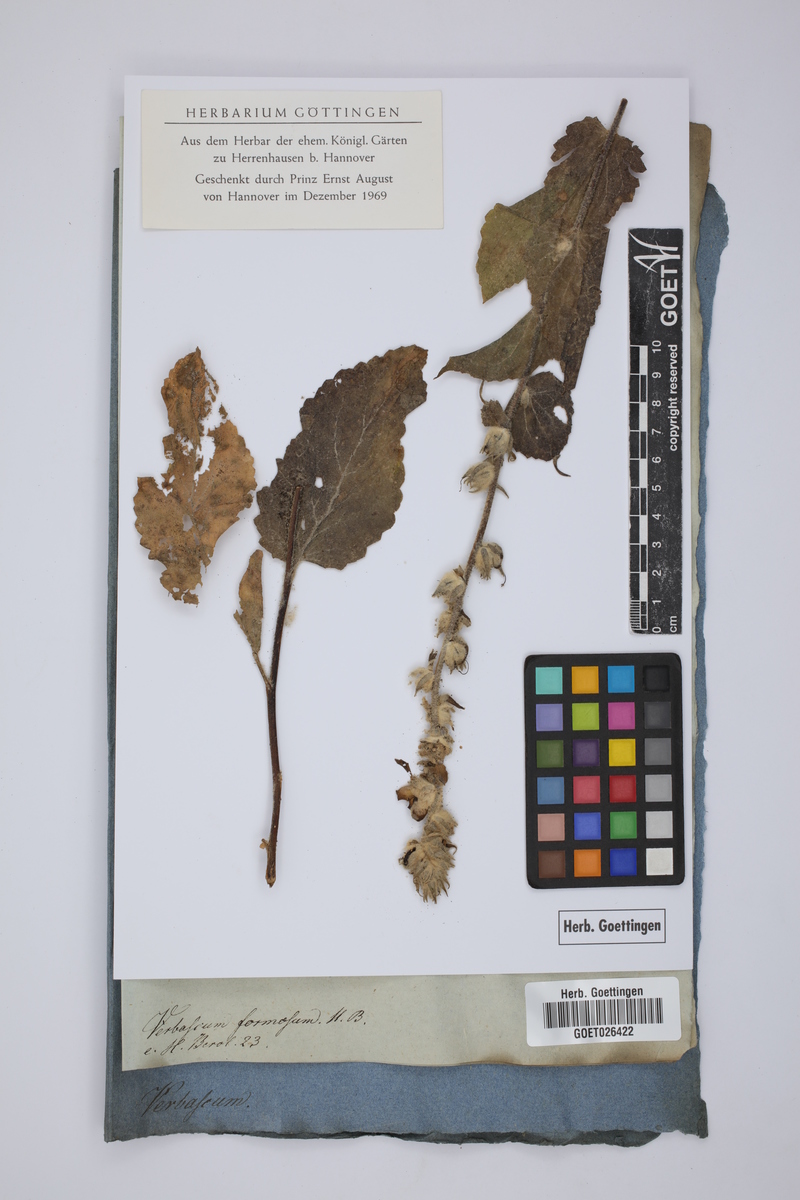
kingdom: Plantae
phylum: Tracheophyta
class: Magnoliopsida
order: Lamiales
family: Scrophulariaceae
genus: Verbascum
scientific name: Verbascum formosum
